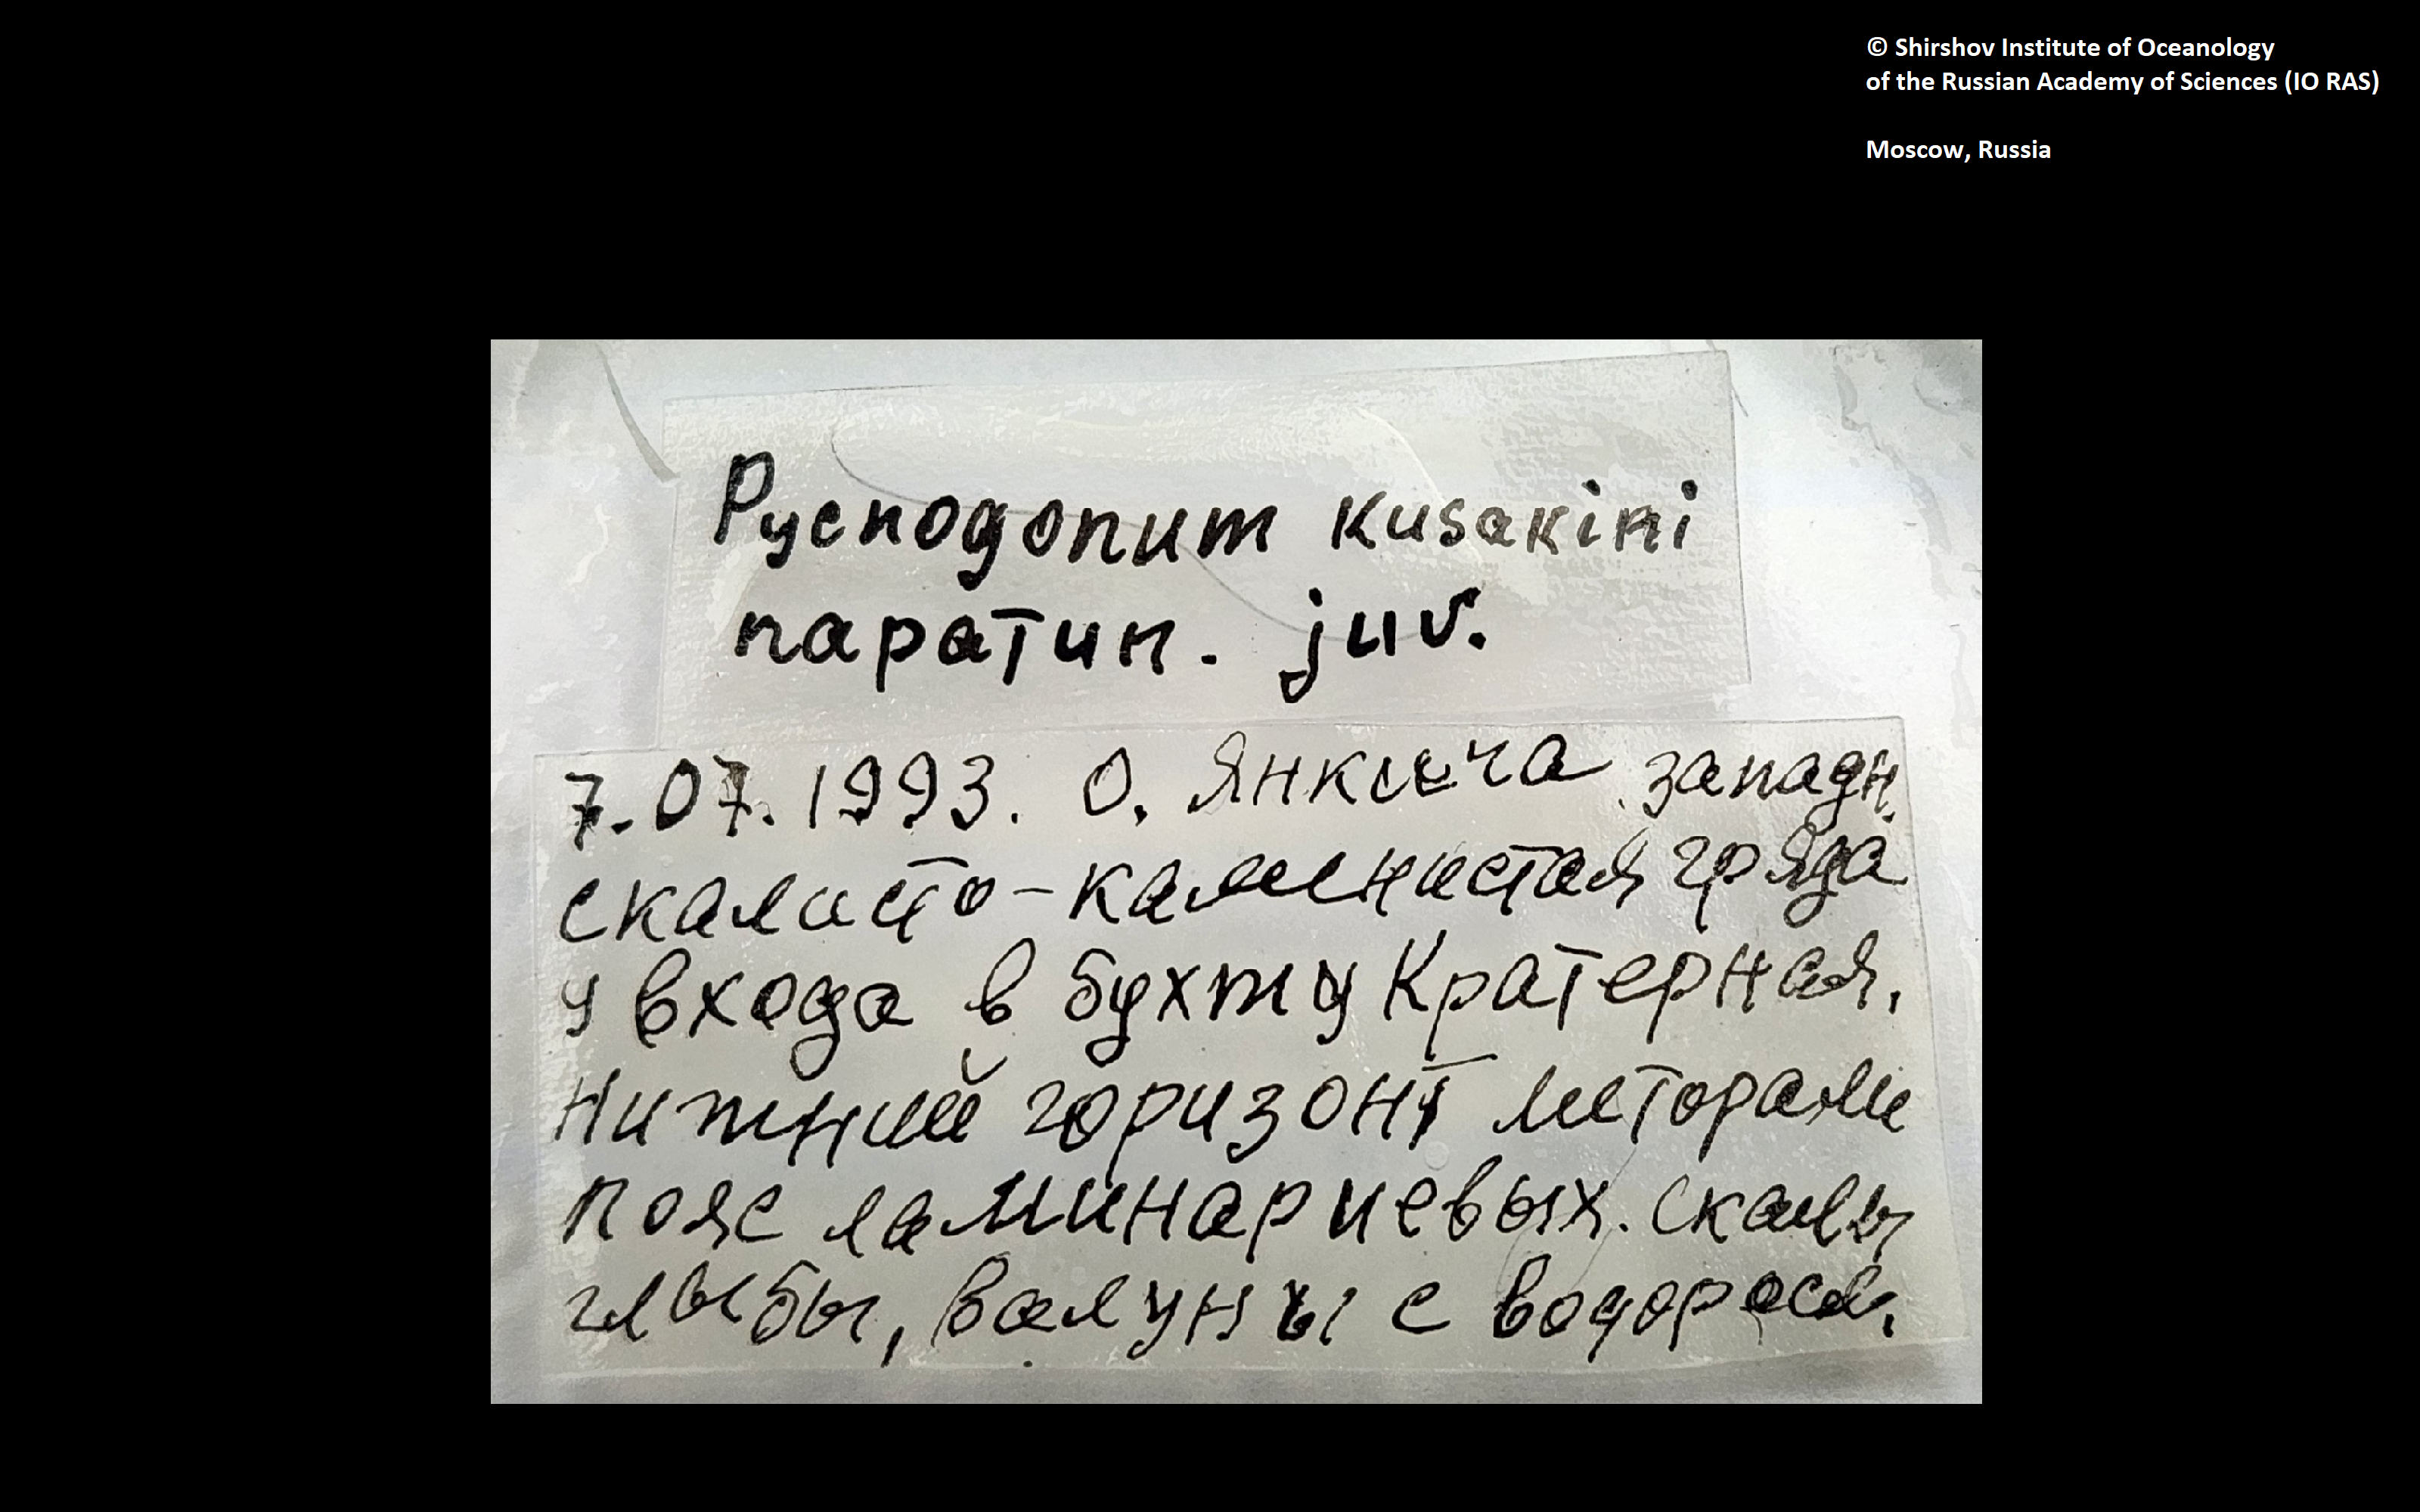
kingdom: Animalia
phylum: Arthropoda
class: Pycnogonida
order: Pantopoda
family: Pycnogonidae
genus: Pycnogonum
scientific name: Pycnogonum kussakini
